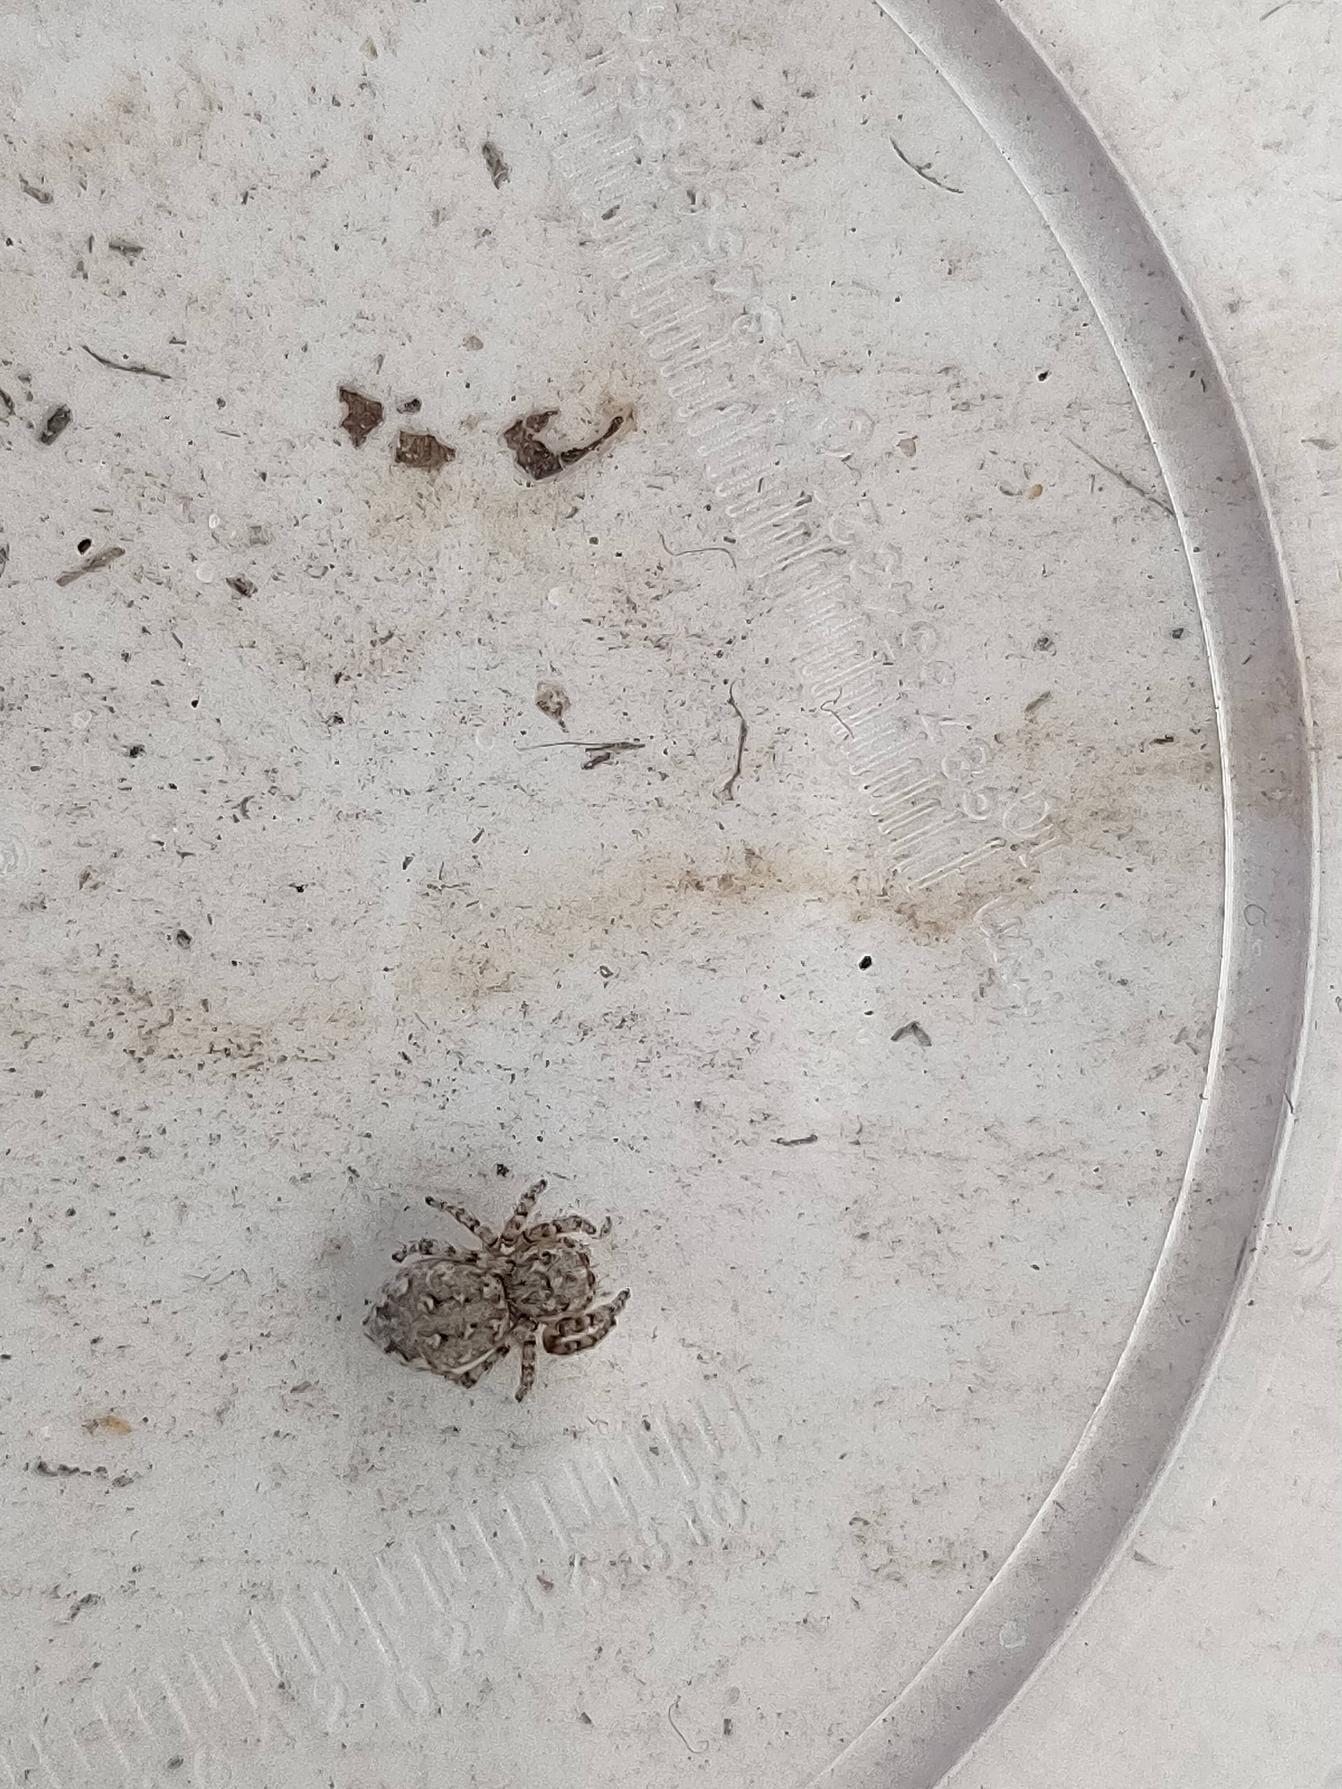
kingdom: Animalia
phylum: Arthropoda
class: Arachnida
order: Araneae
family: Salticidae
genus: Attulus
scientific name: Attulus distinguendus
